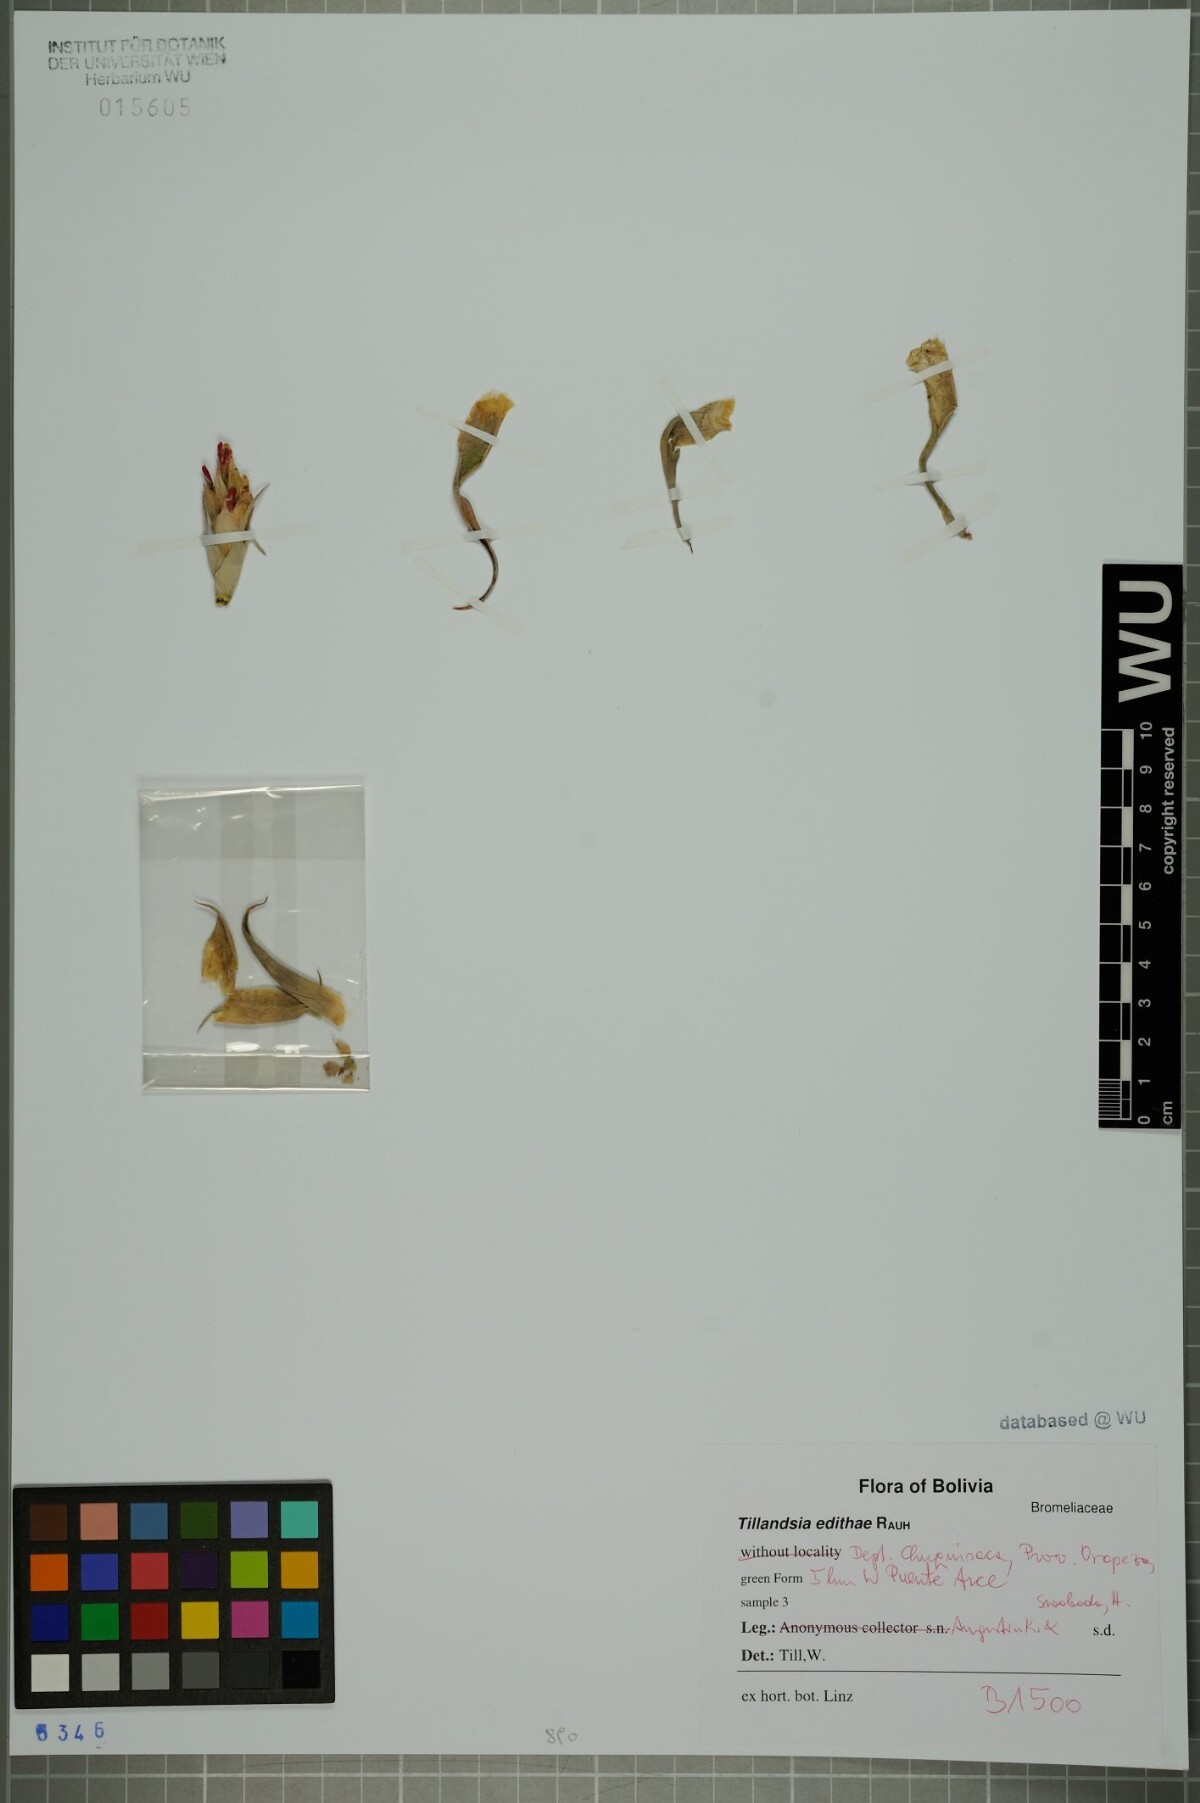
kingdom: Plantae
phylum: Tracheophyta
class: Liliopsida
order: Poales
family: Bromeliaceae
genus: Tillandsia
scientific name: Tillandsia edithae
